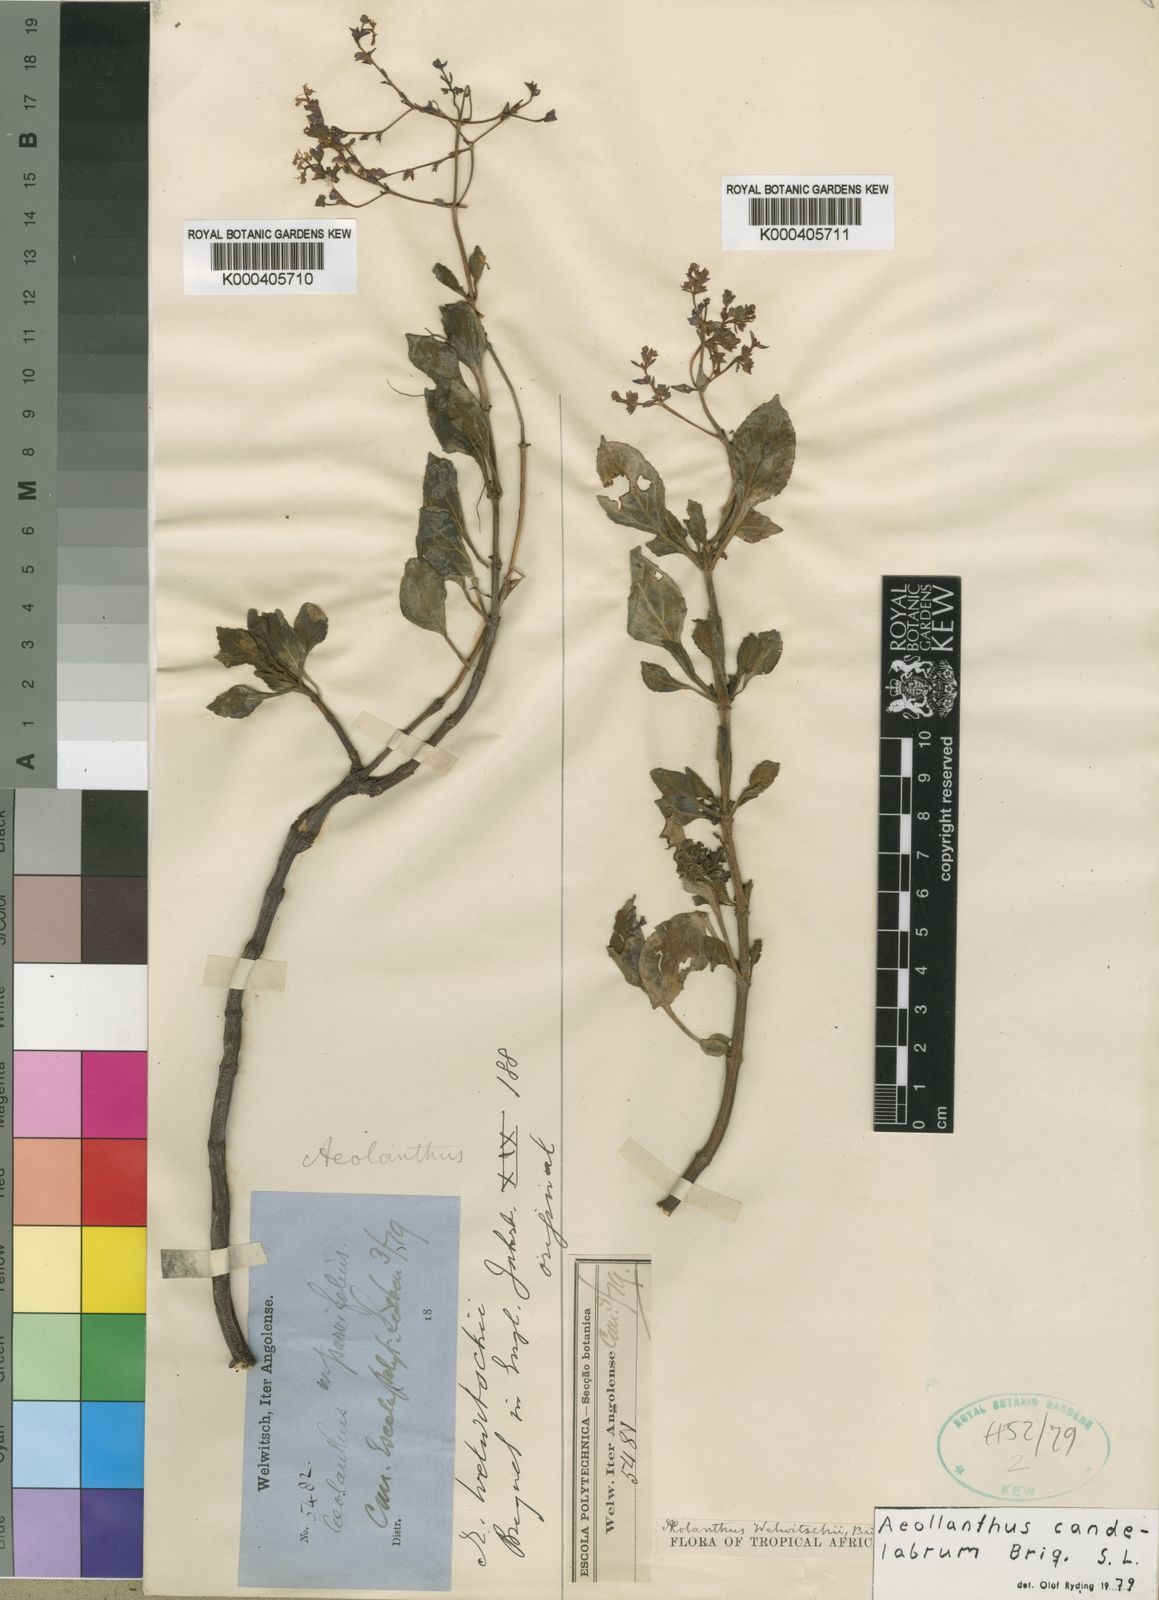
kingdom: Plantae
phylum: Tracheophyta
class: Magnoliopsida
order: Lamiales
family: Lamiaceae
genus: Aeollanthus
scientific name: Aeollanthus candelabrum
